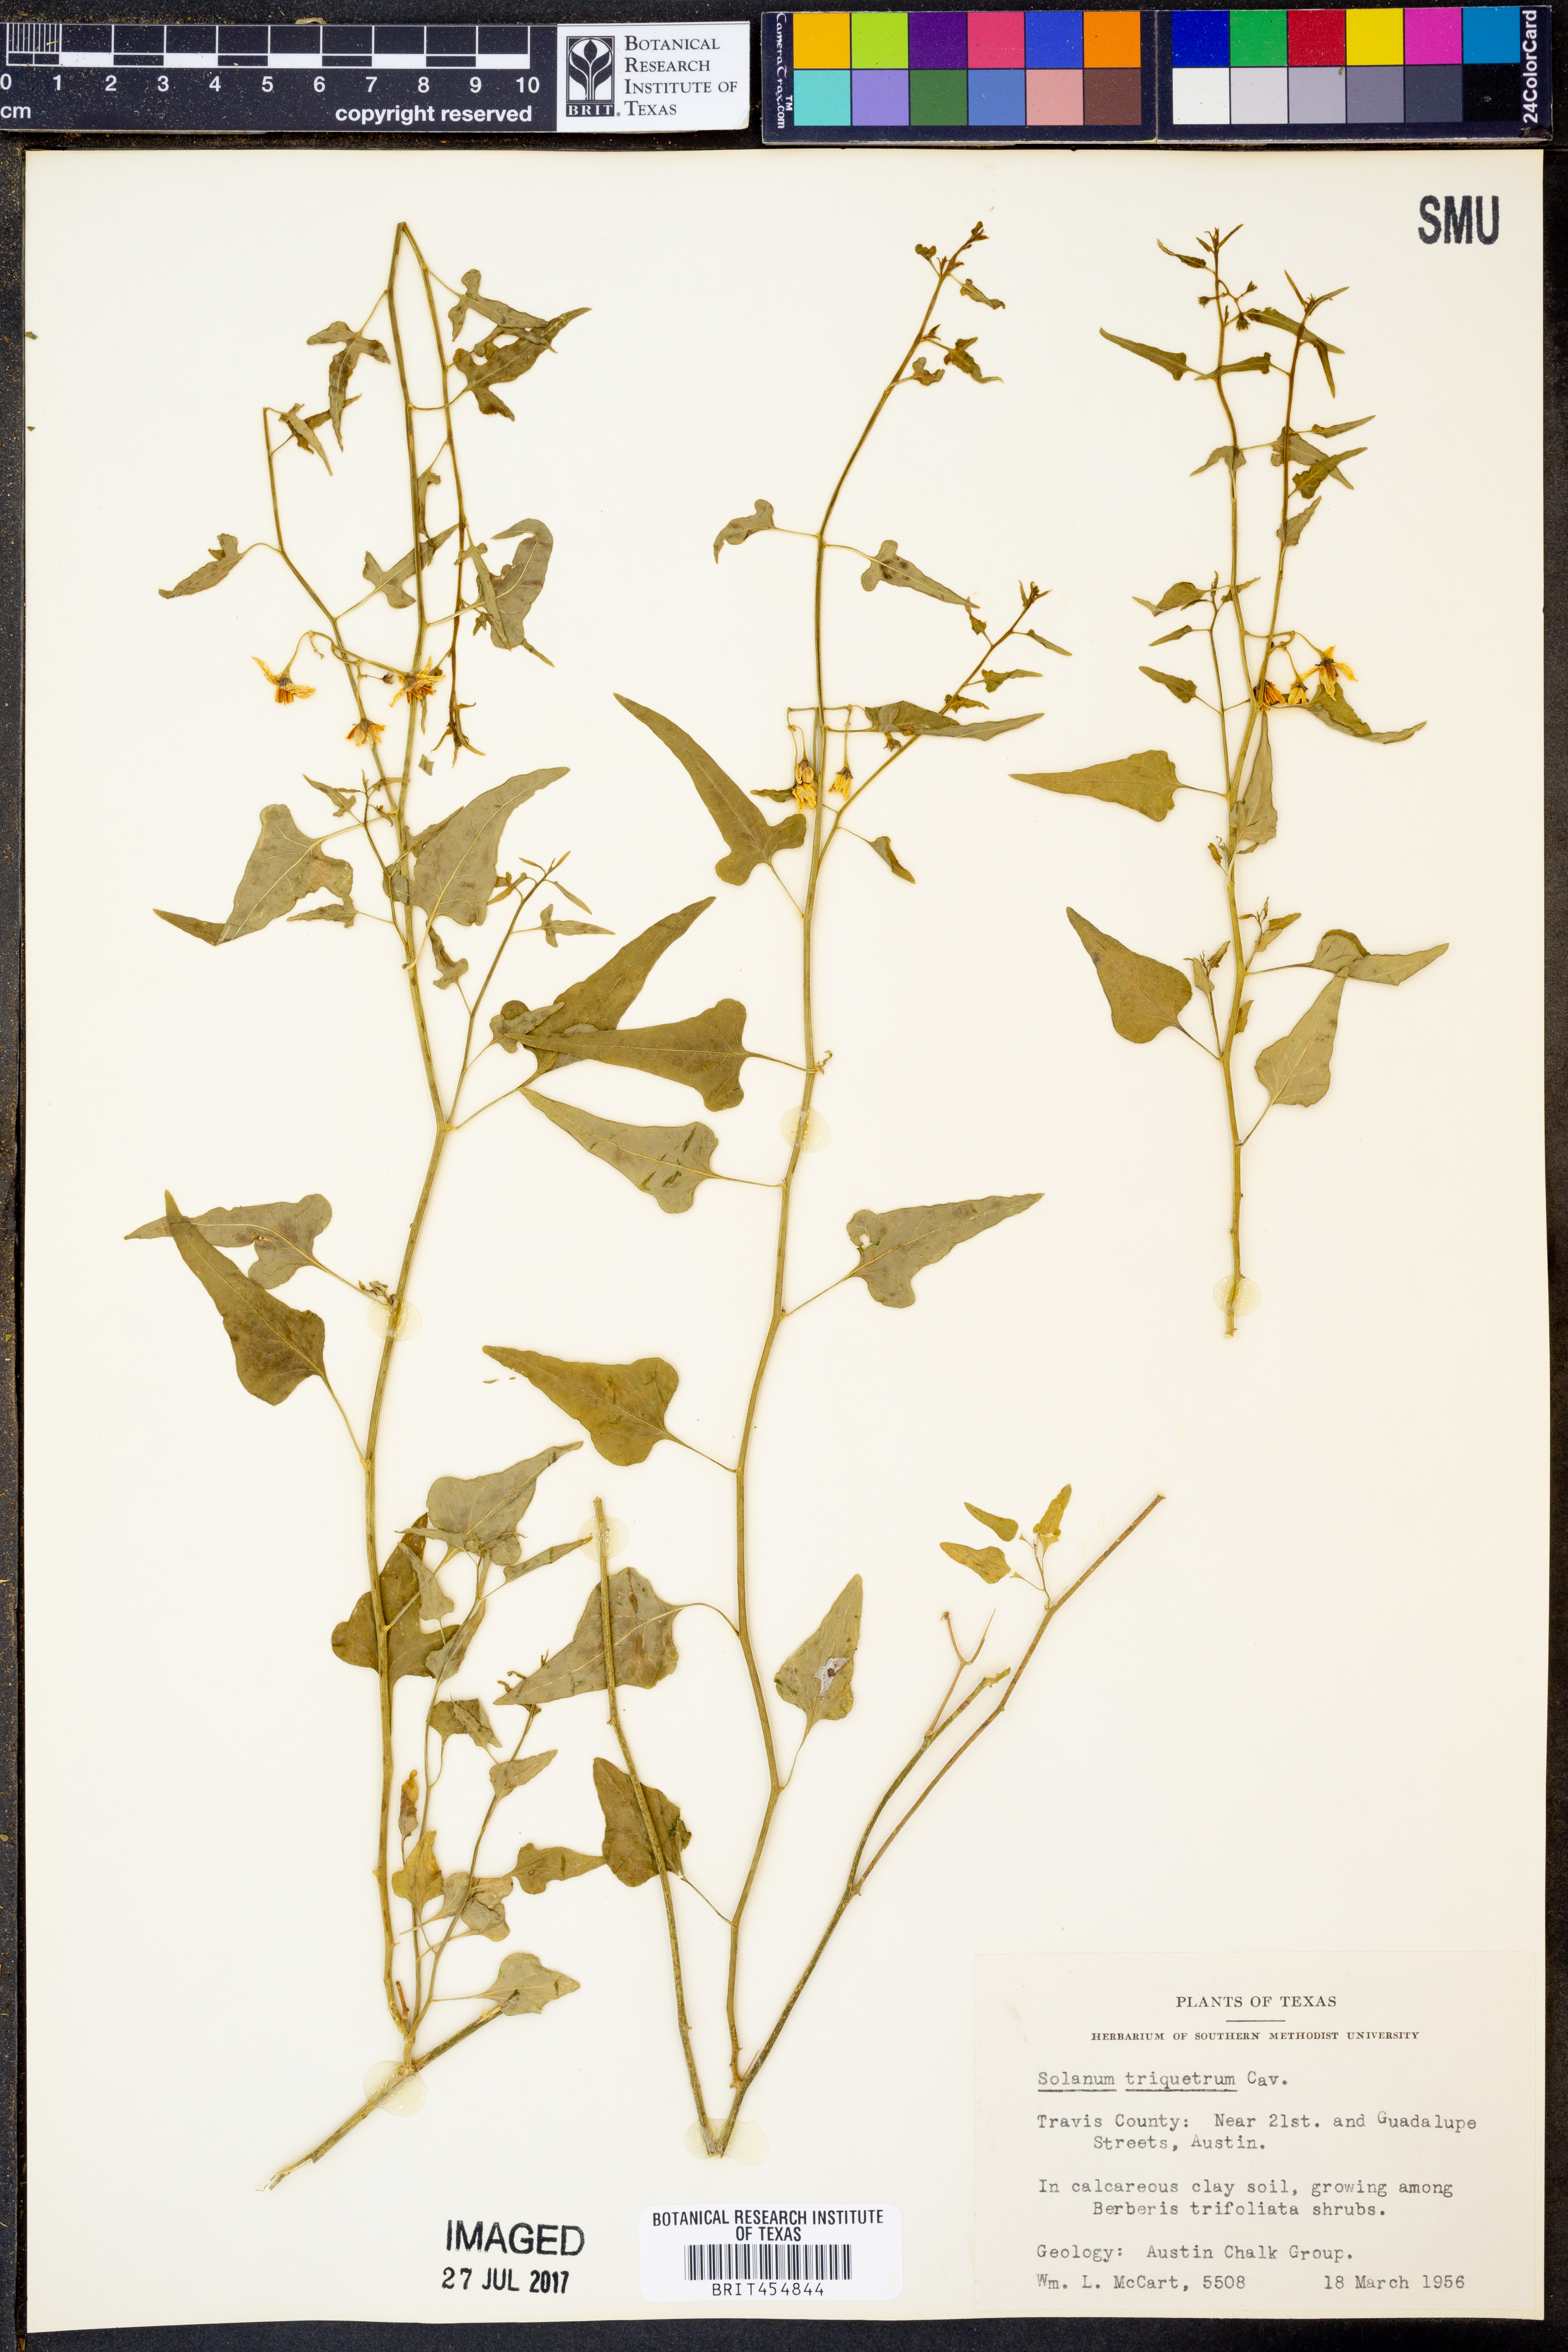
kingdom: Plantae
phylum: Tracheophyta
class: Magnoliopsida
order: Solanales
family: Solanaceae
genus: Solanum
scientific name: Solanum triquetrum
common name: Texas nightshade
